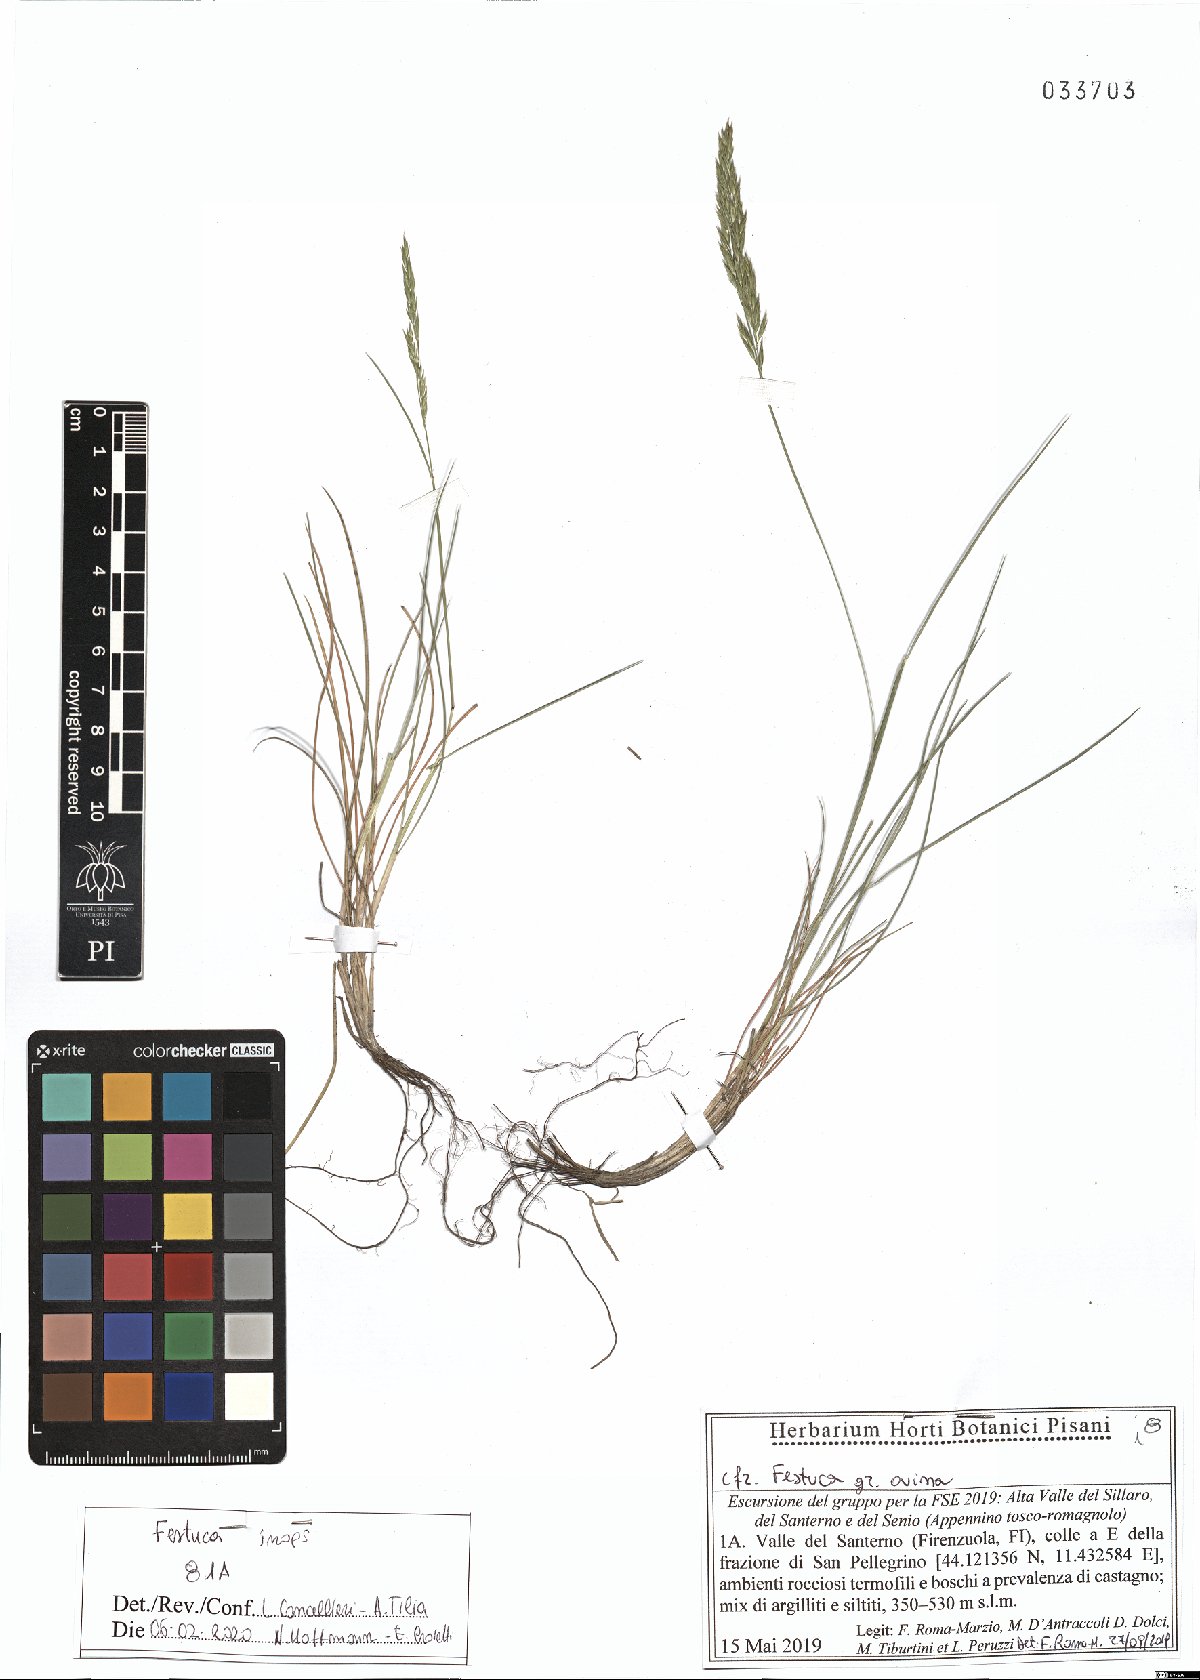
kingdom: Plantae
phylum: Tracheophyta
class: Liliopsida
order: Poales
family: Poaceae
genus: Festuca
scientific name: Festuca inops
